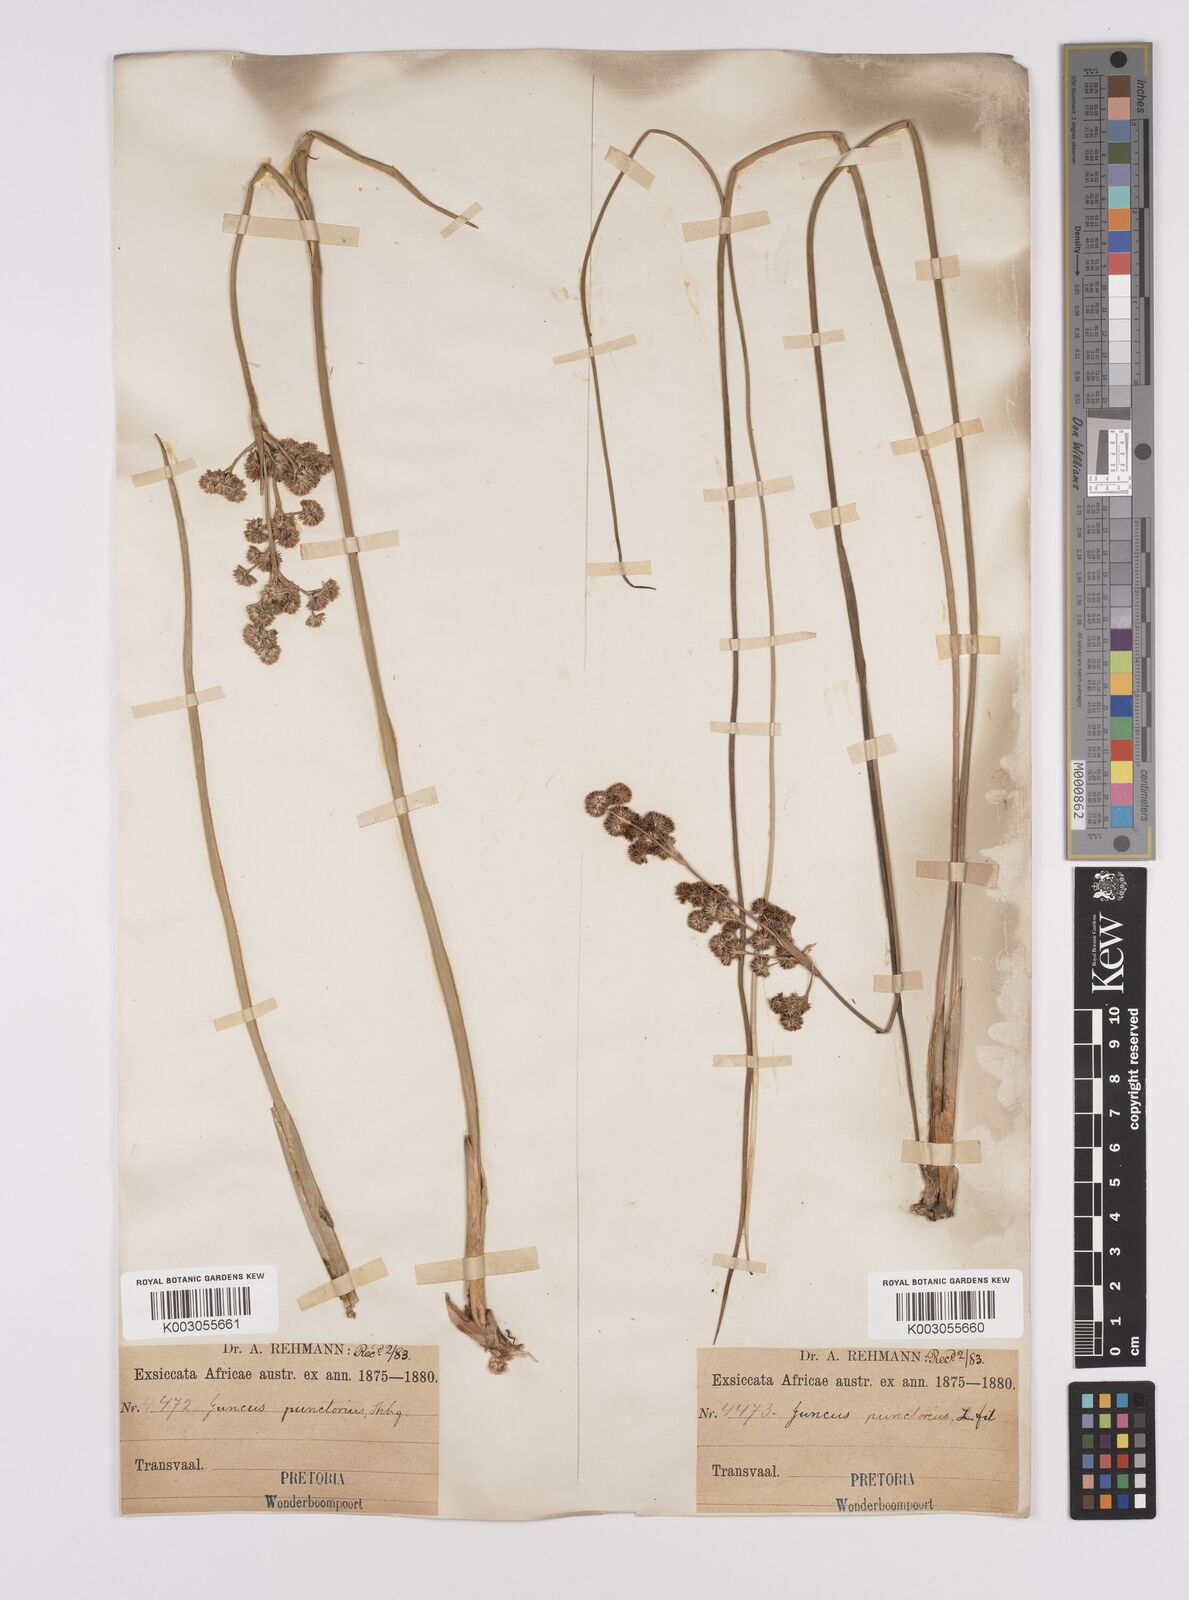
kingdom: Plantae
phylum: Tracheophyta
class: Liliopsida
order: Poales
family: Juncaceae
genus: Juncus
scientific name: Juncus punctorius
